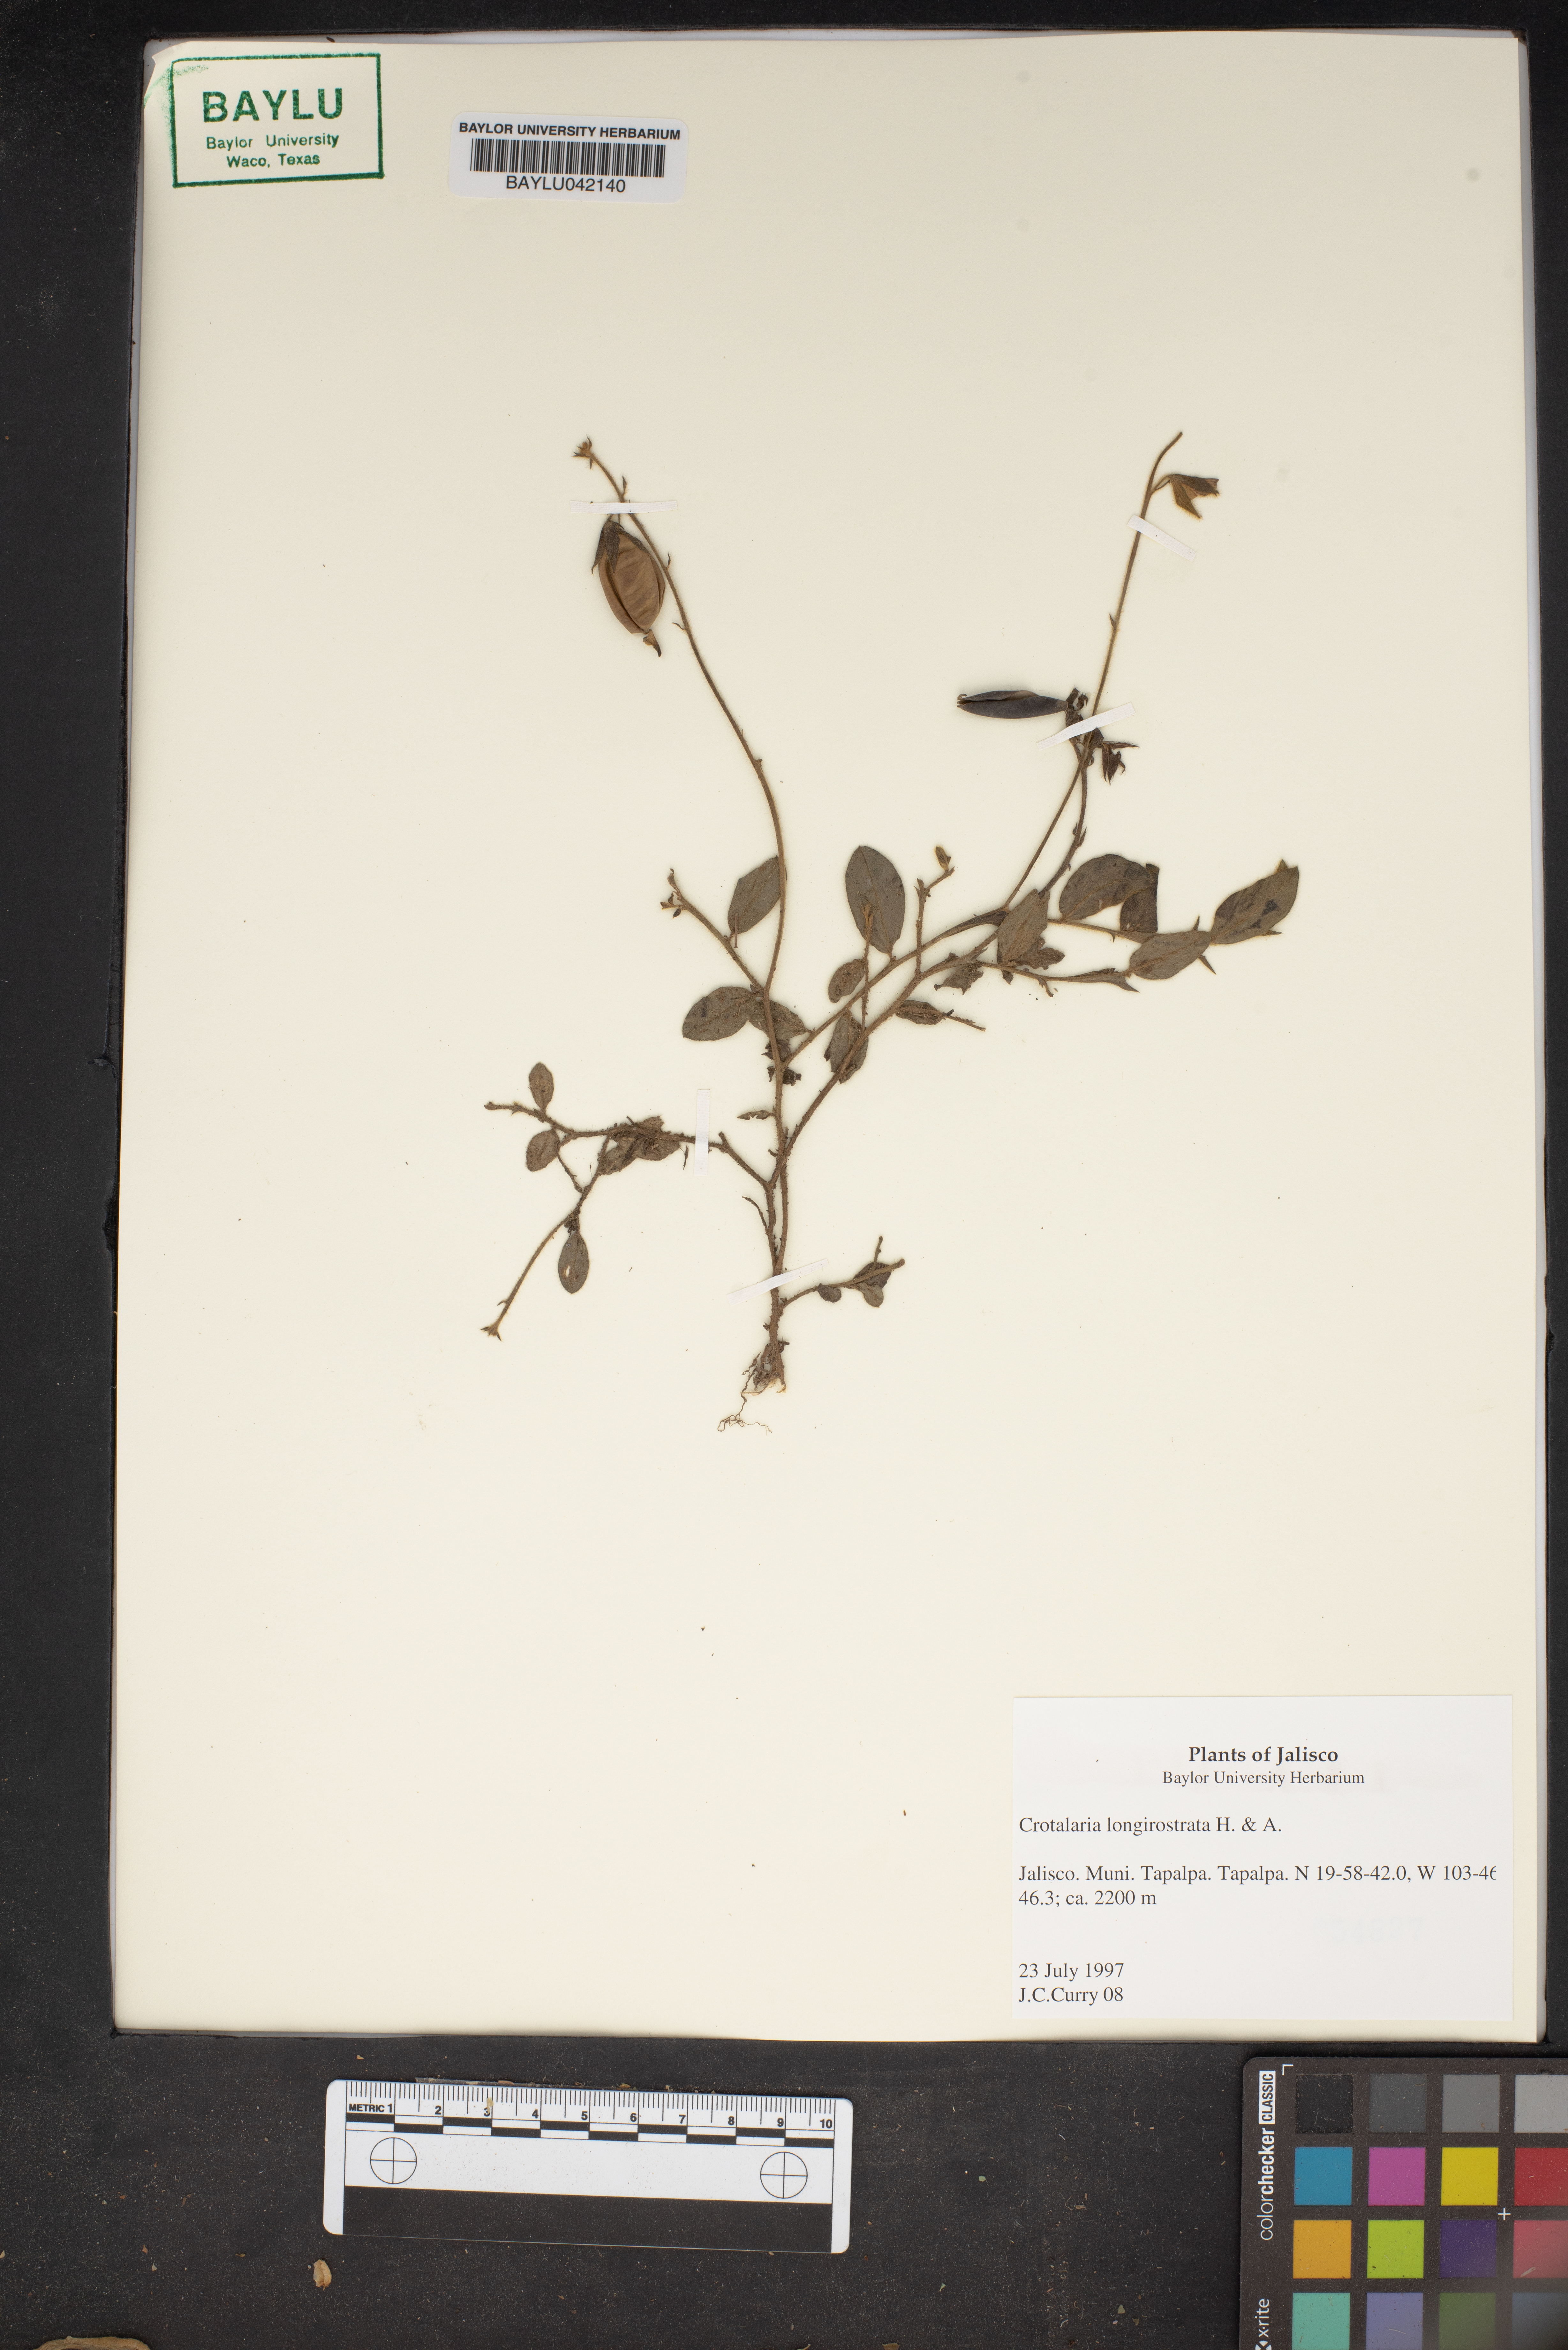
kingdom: Plantae
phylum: Tracheophyta
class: Magnoliopsida
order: Fabales
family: Fabaceae
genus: Crotalaria
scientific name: Crotalaria longirostrata
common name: Longbeak rattlebox
